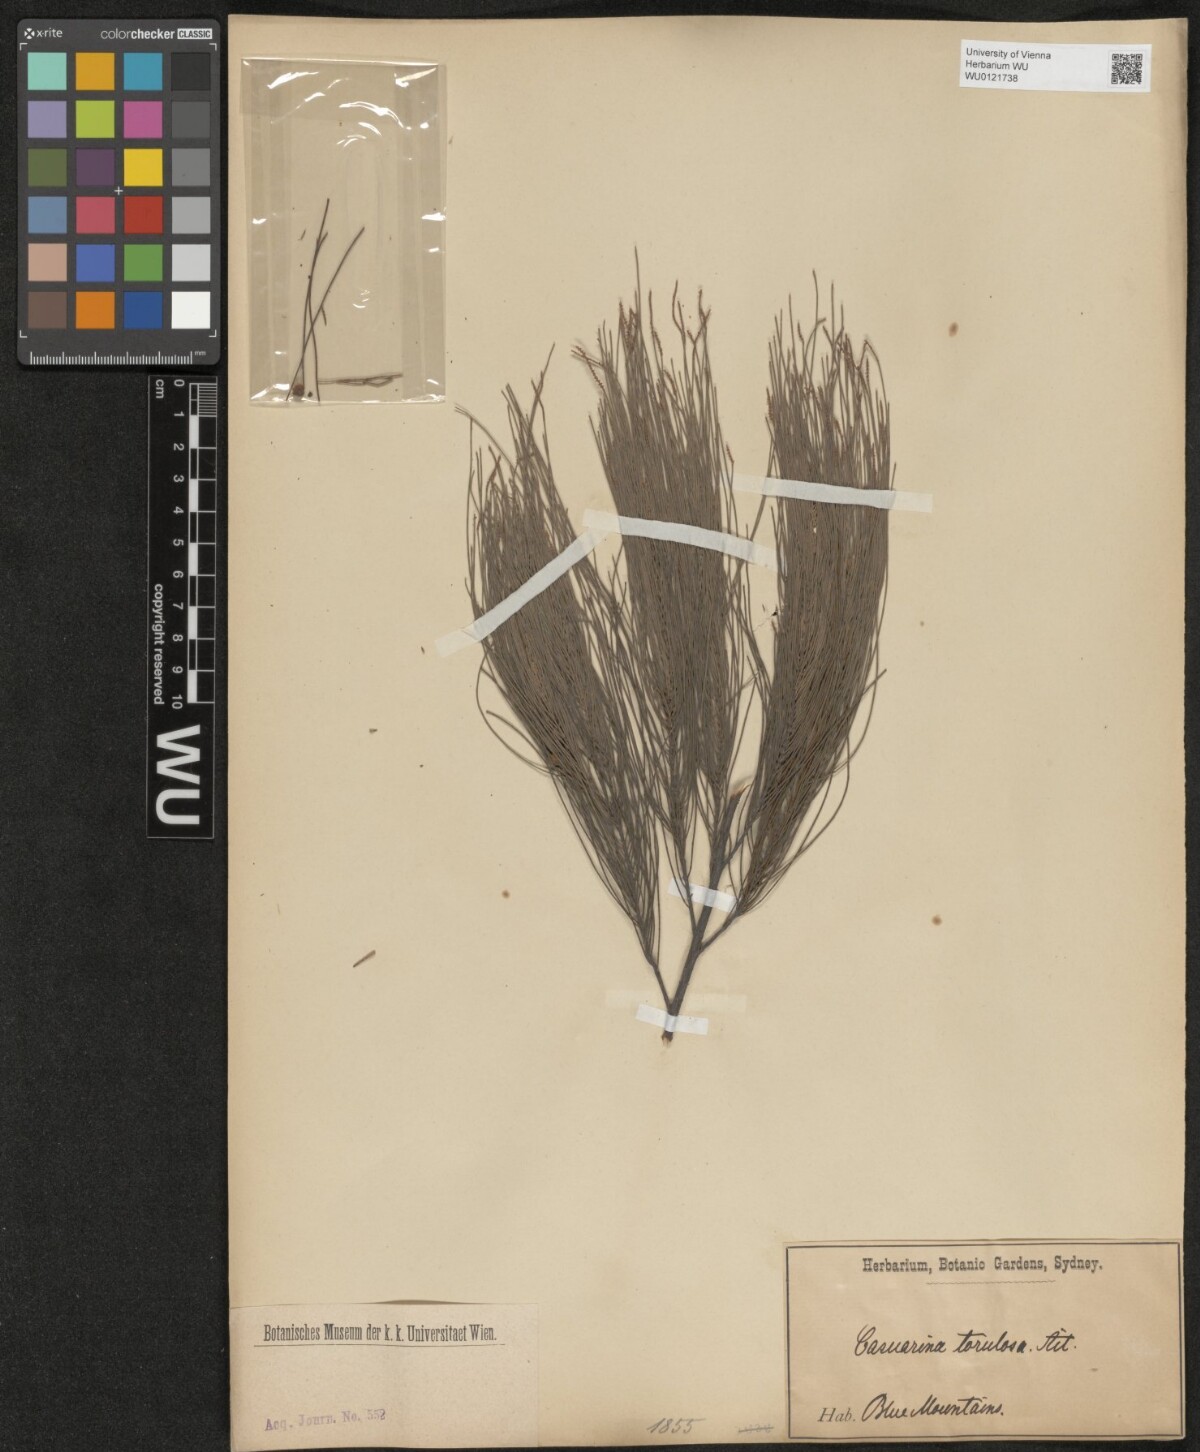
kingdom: Plantae
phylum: Tracheophyta
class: Magnoliopsida
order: Fagales
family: Casuarinaceae
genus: Allocasuarina
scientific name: Allocasuarina torulosa
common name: Forest-oak
